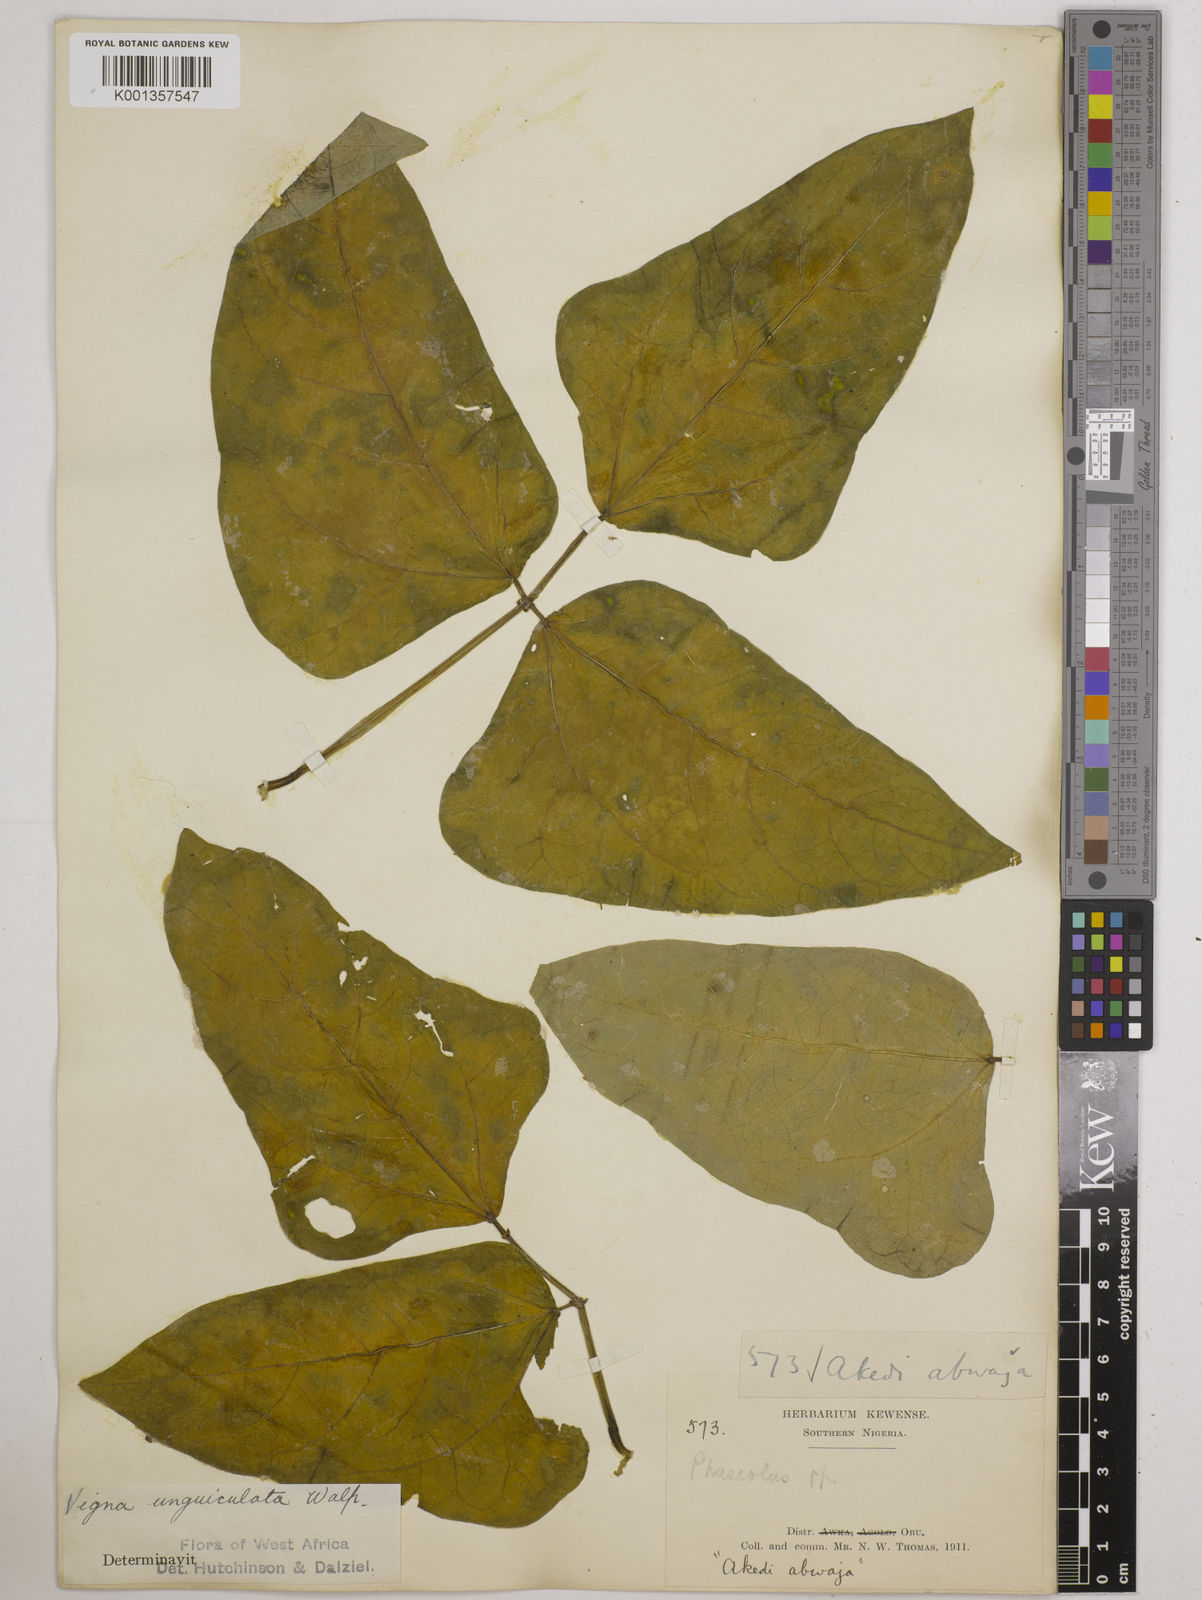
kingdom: Plantae
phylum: Tracheophyta
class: Magnoliopsida
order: Fabales
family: Fabaceae
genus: Vigna
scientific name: Vigna
